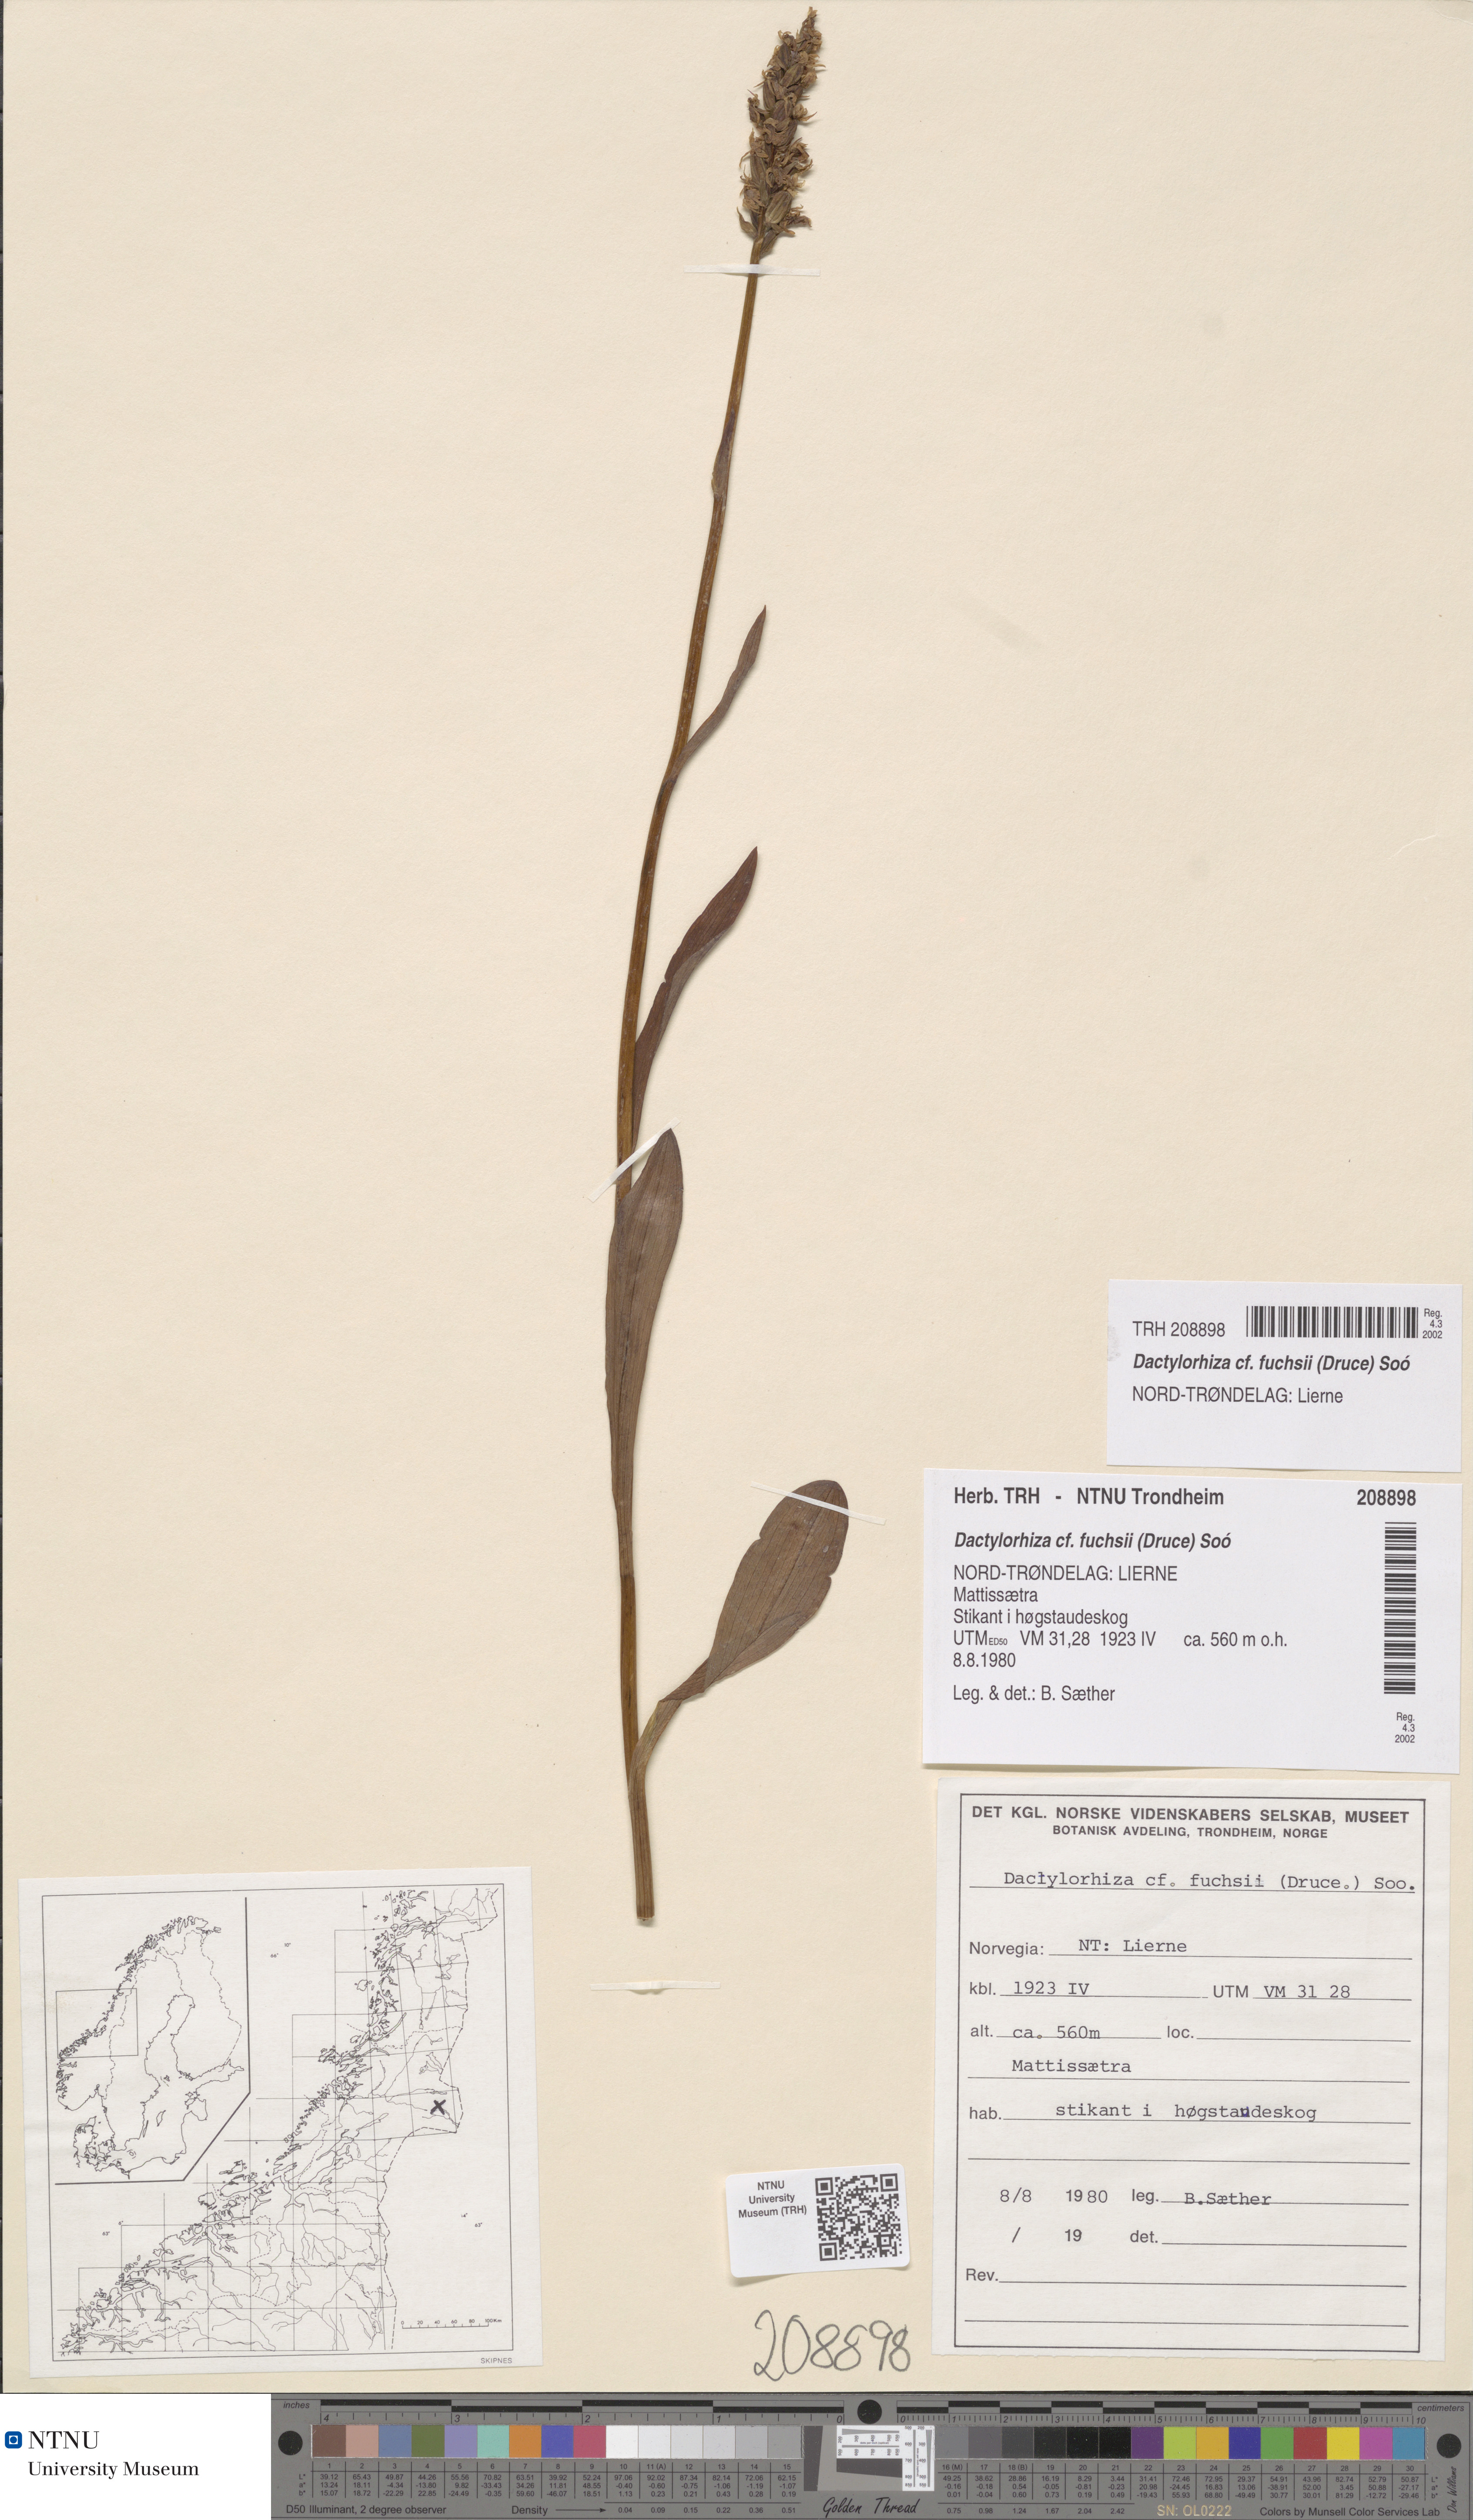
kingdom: Plantae
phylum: Tracheophyta
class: Liliopsida
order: Asparagales
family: Orchidaceae
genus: Dactylorhiza
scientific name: Dactylorhiza maculata
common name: Heath spotted-orchid
